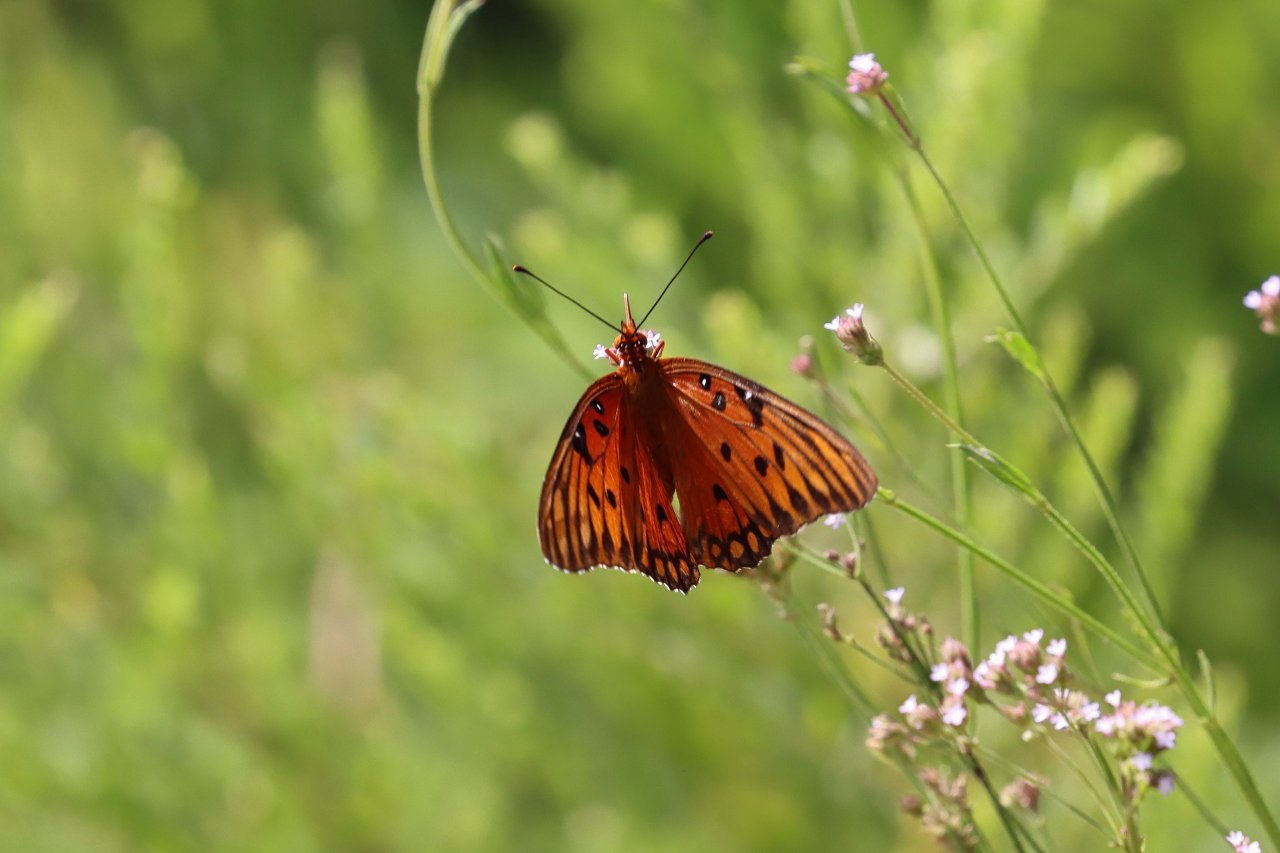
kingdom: Animalia
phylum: Arthropoda
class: Insecta
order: Lepidoptera
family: Nymphalidae
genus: Dione
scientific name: Dione vanillae
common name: Gulf Fritillary
